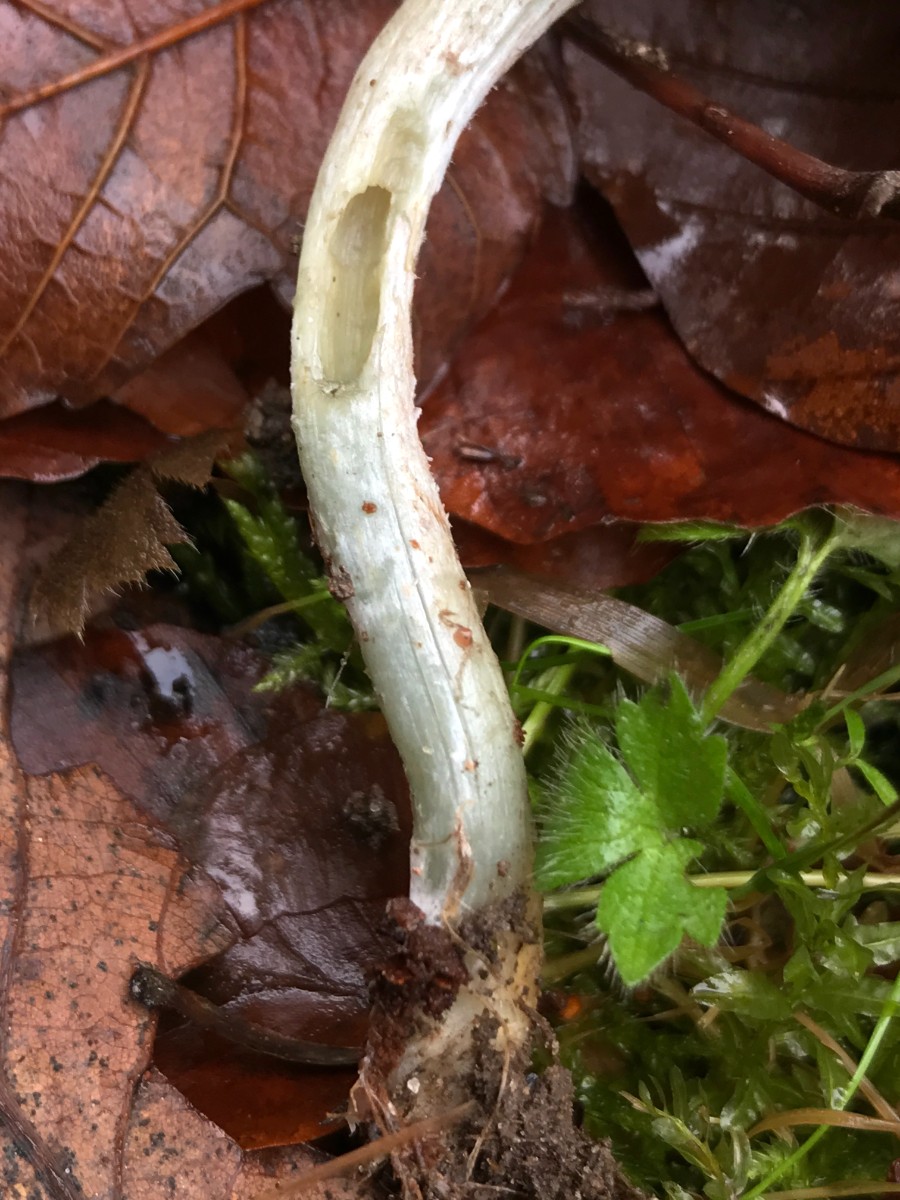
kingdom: Fungi
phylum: Basidiomycota
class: Agaricomycetes
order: Agaricales
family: Strophariaceae
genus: Stropharia
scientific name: Stropharia pseudocyanea
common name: blegblå bredblad
